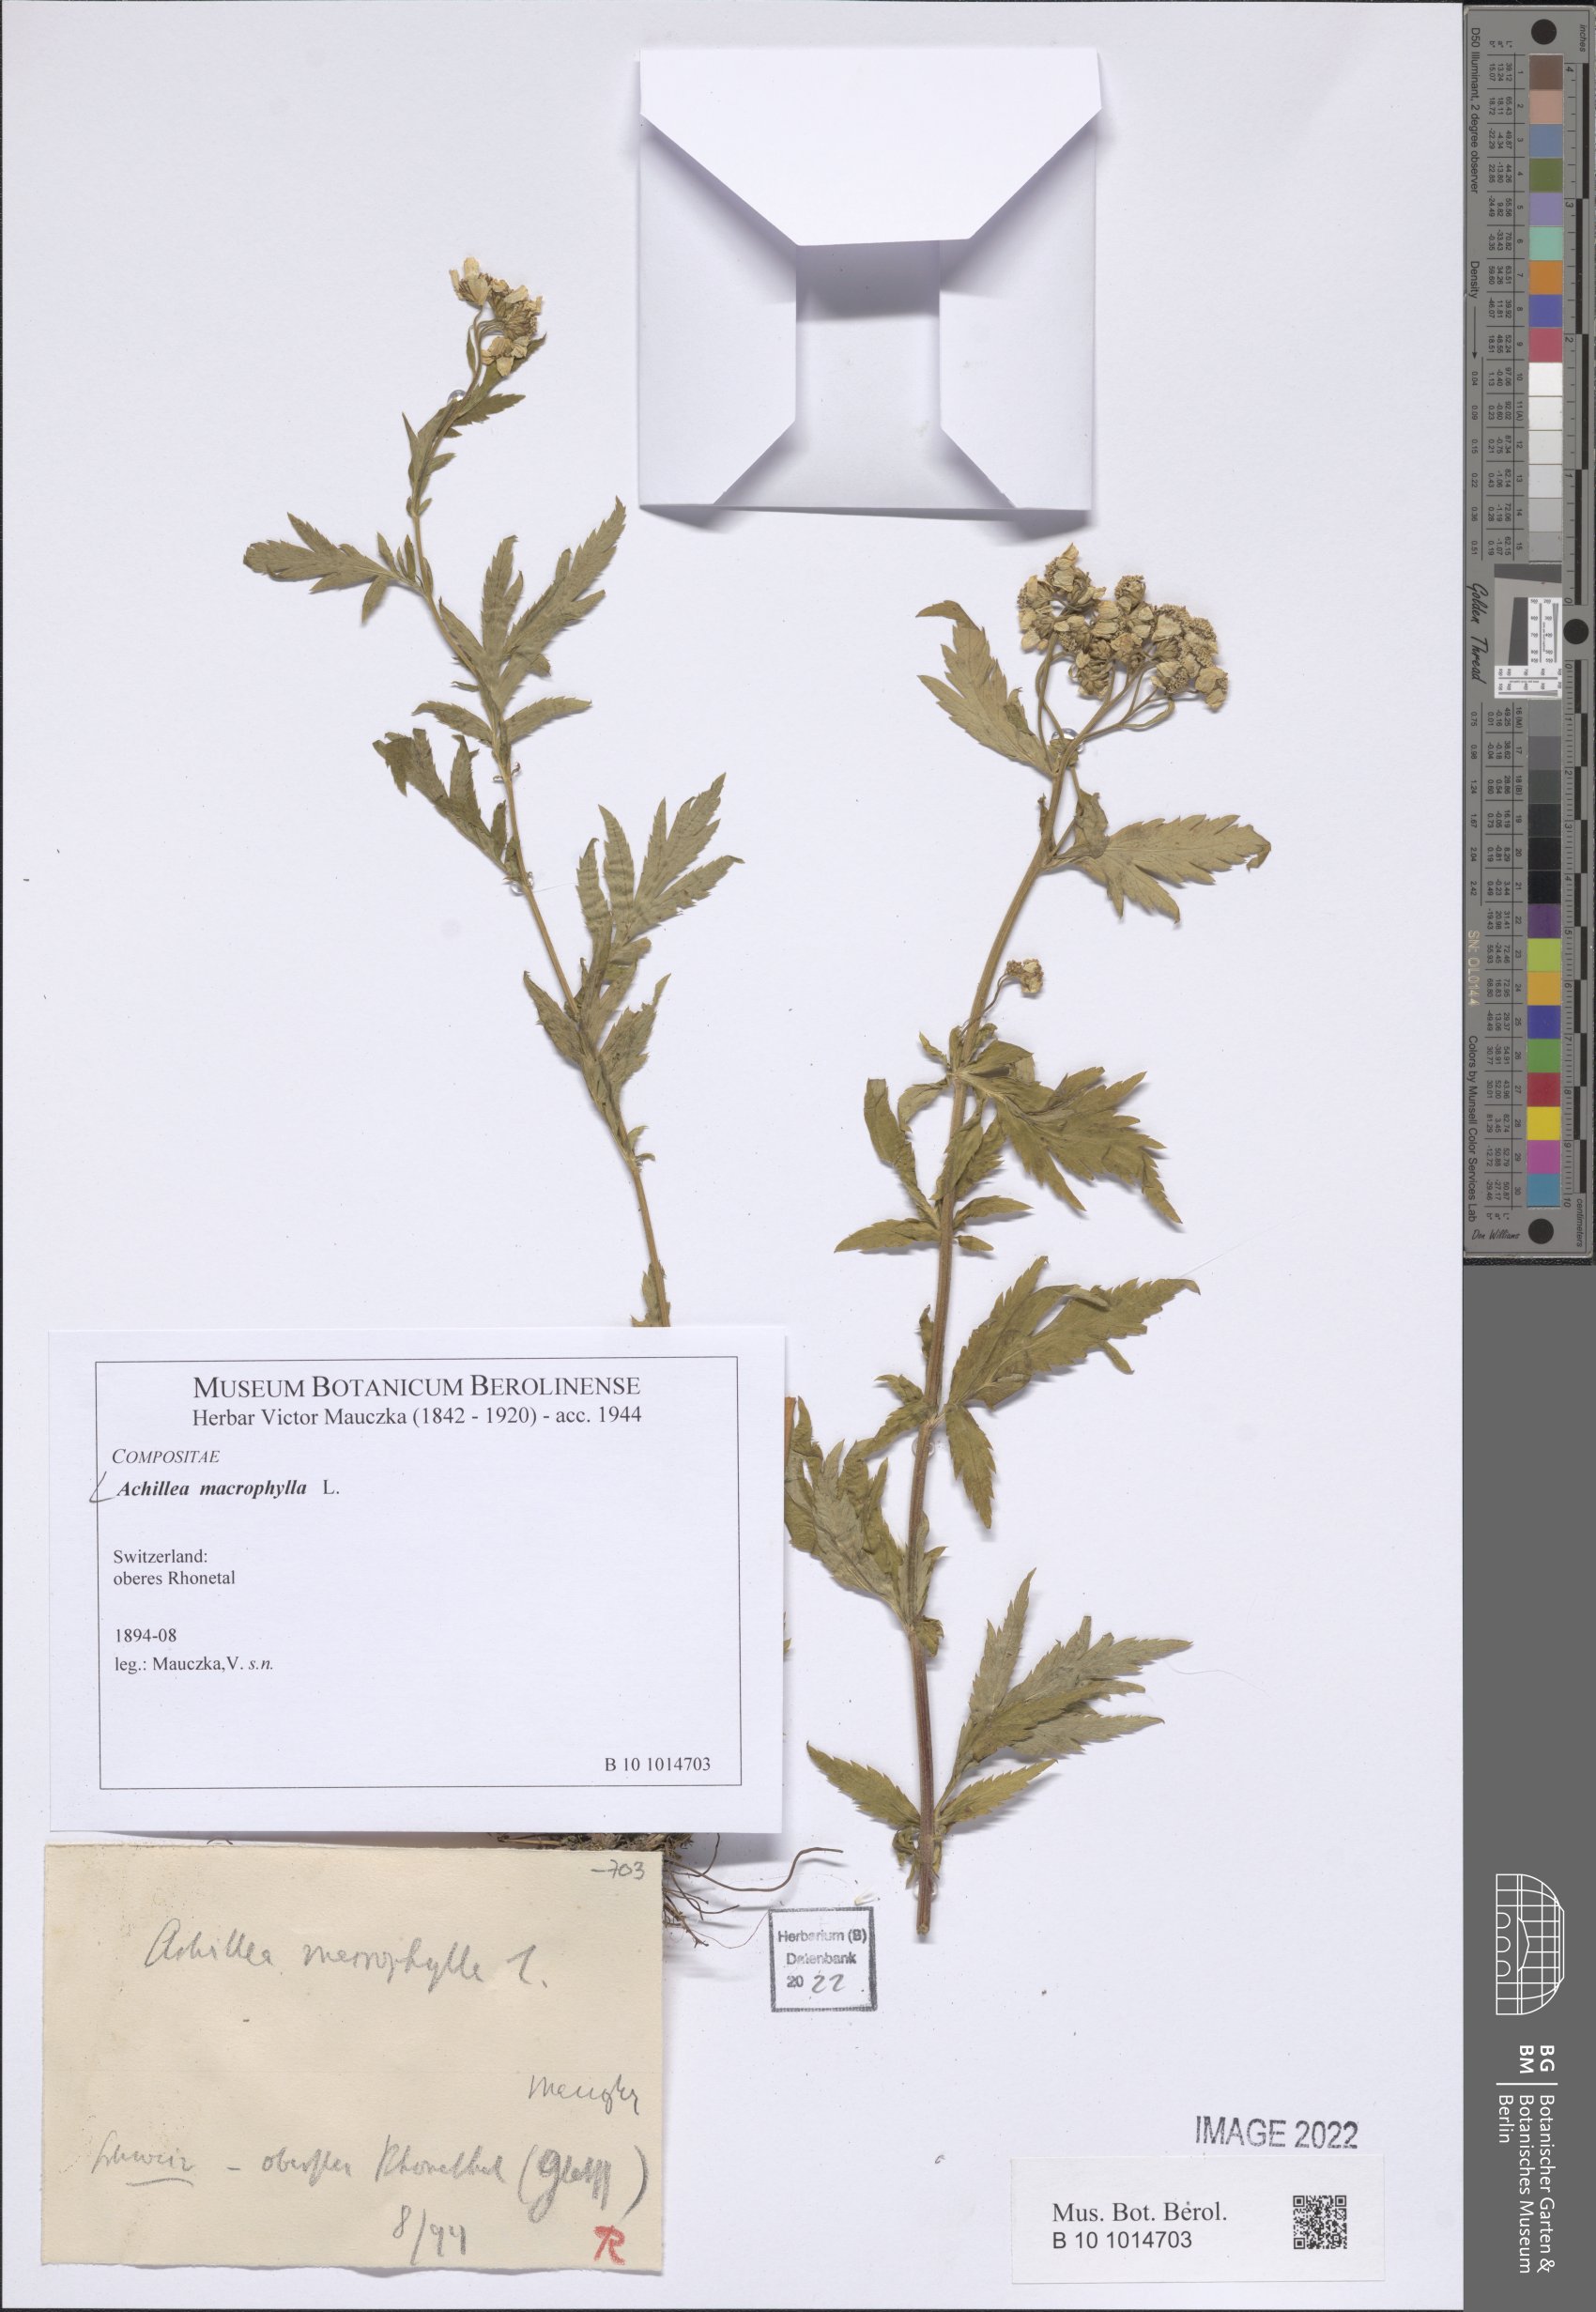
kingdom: Plantae
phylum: Tracheophyta
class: Magnoliopsida
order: Asterales
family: Asteraceae
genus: Achillea
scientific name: Achillea macrophylla
